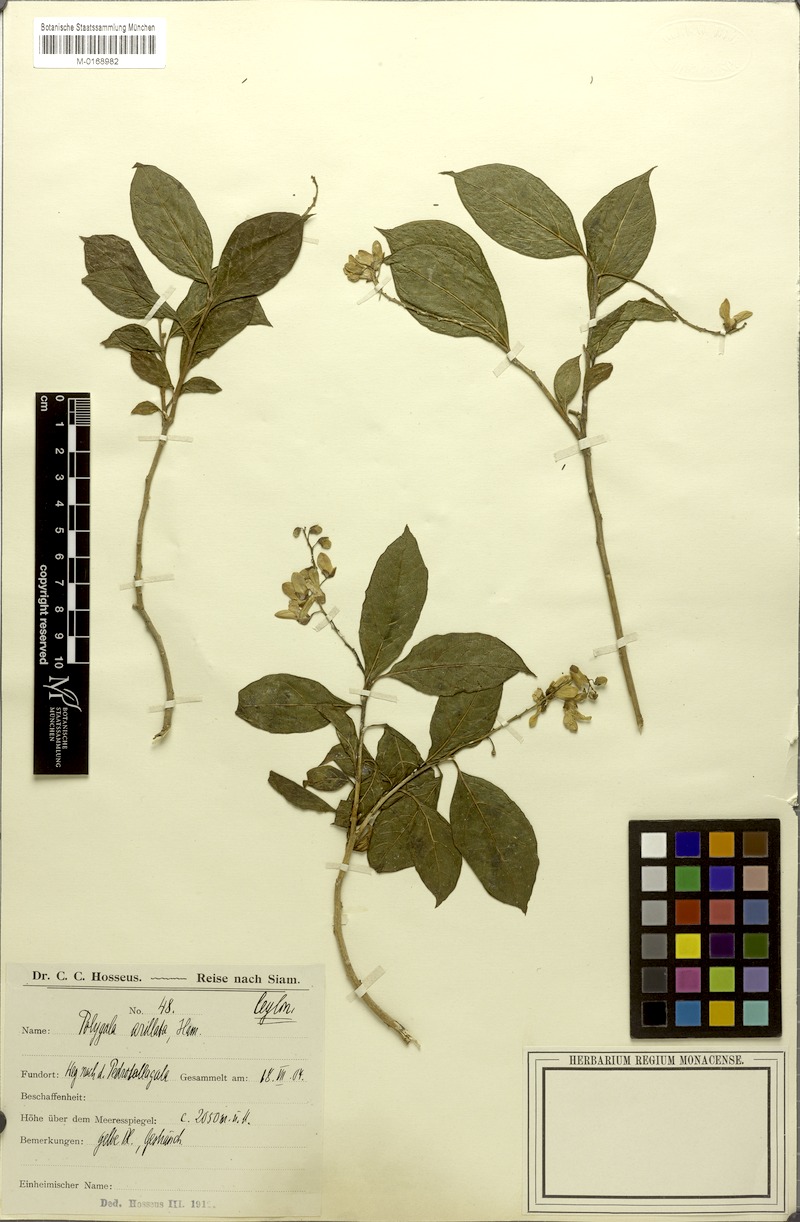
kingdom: Plantae
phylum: Tracheophyta
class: Magnoliopsida
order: Fabales
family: Polygalaceae
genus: Polygala
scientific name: Polygala arillata
